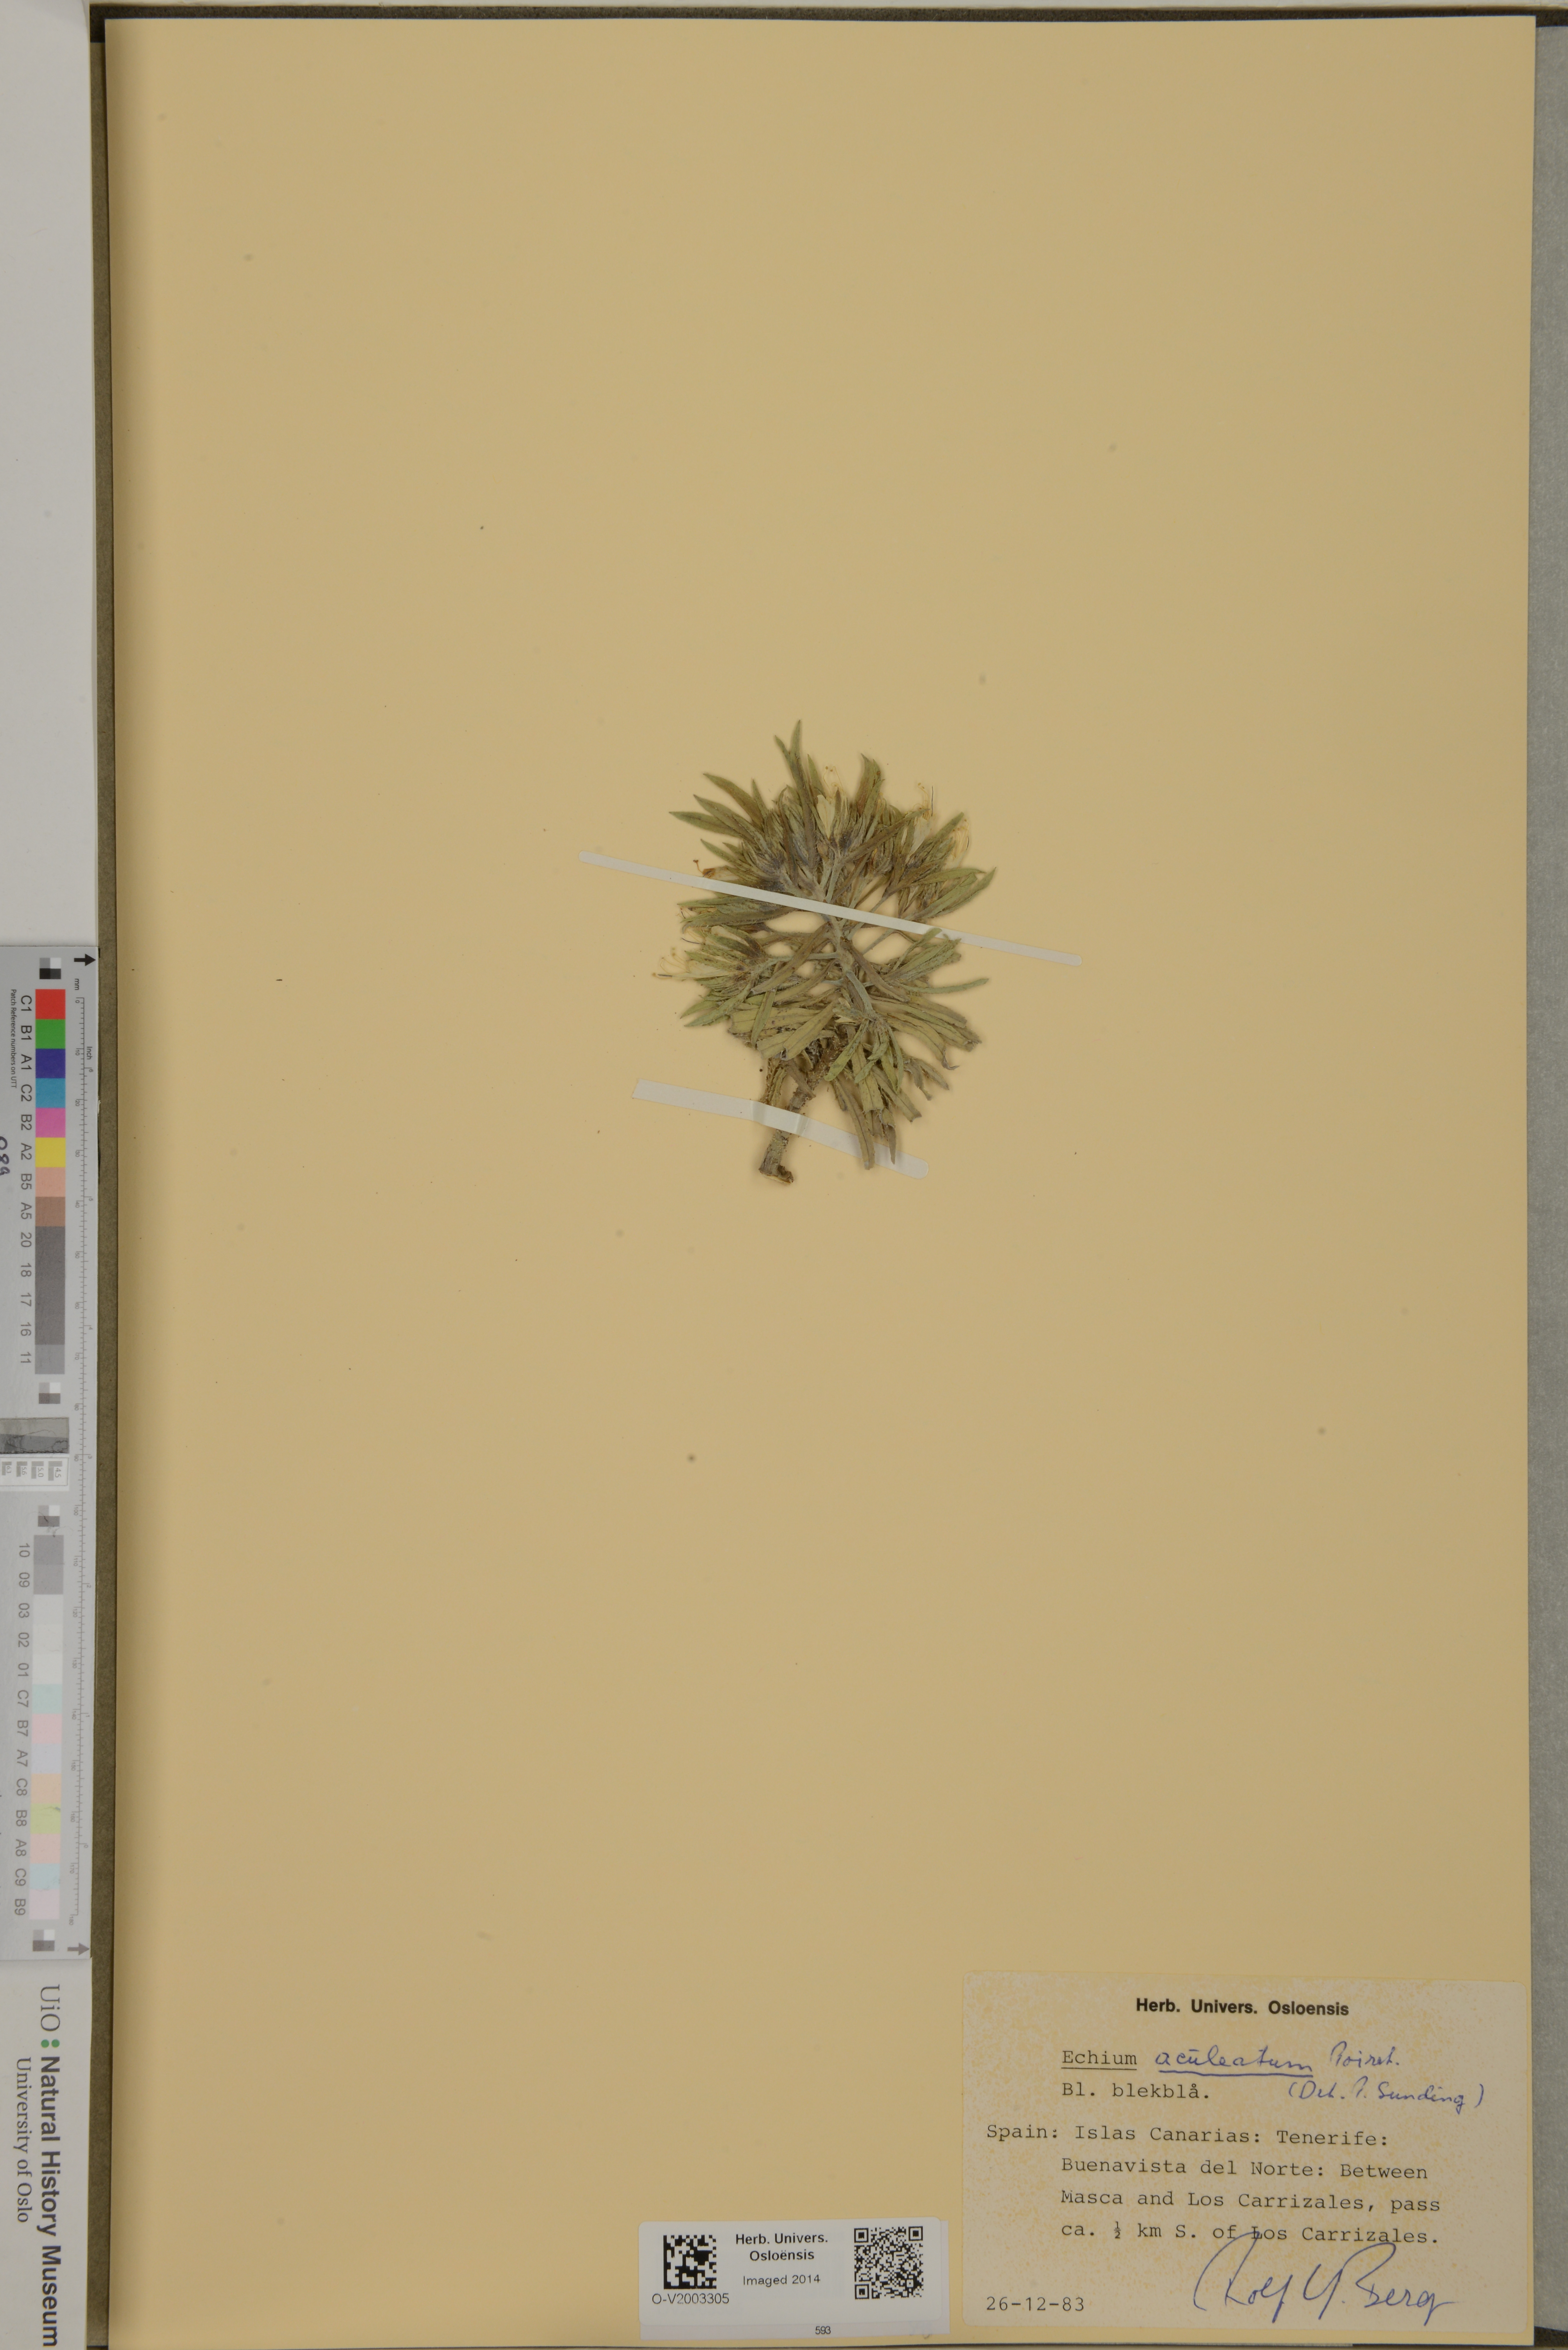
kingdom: Plantae
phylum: Tracheophyta
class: Magnoliopsida
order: Boraginales
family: Boraginaceae
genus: Echium
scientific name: Echium aculeatum
